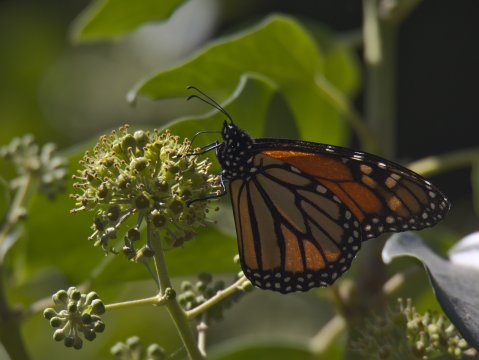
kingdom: Animalia
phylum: Arthropoda
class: Insecta
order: Lepidoptera
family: Nymphalidae
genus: Danaus
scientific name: Danaus plexippus
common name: Monarch
